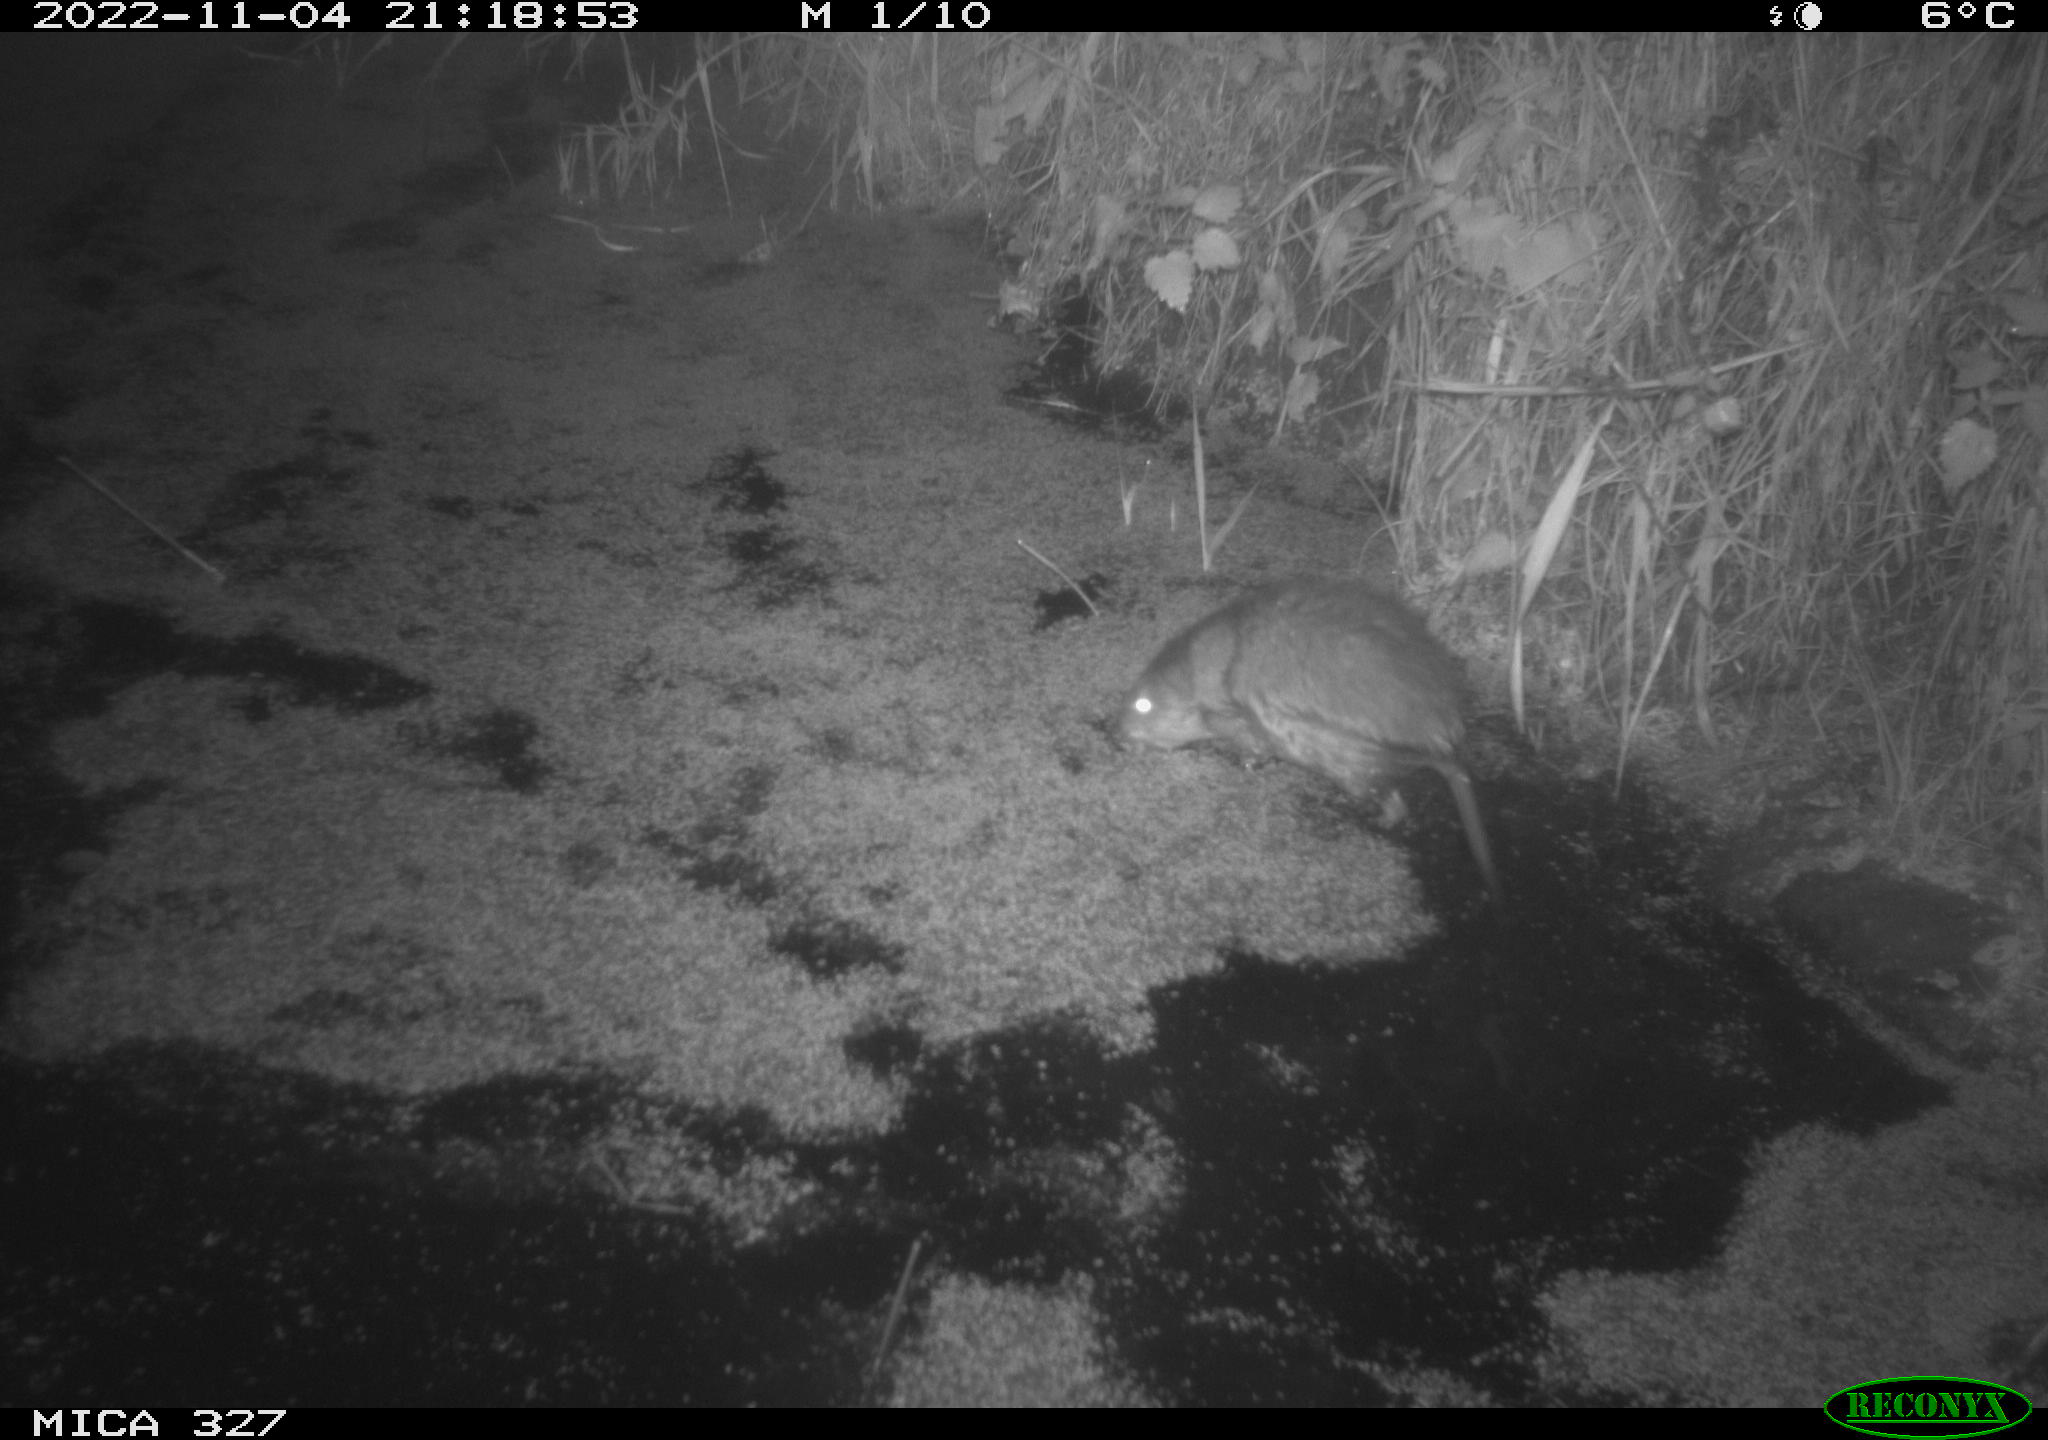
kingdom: Animalia
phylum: Chordata
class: Mammalia
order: Rodentia
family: Cricetidae
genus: Ondatra
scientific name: Ondatra zibethicus
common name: Muskrat
